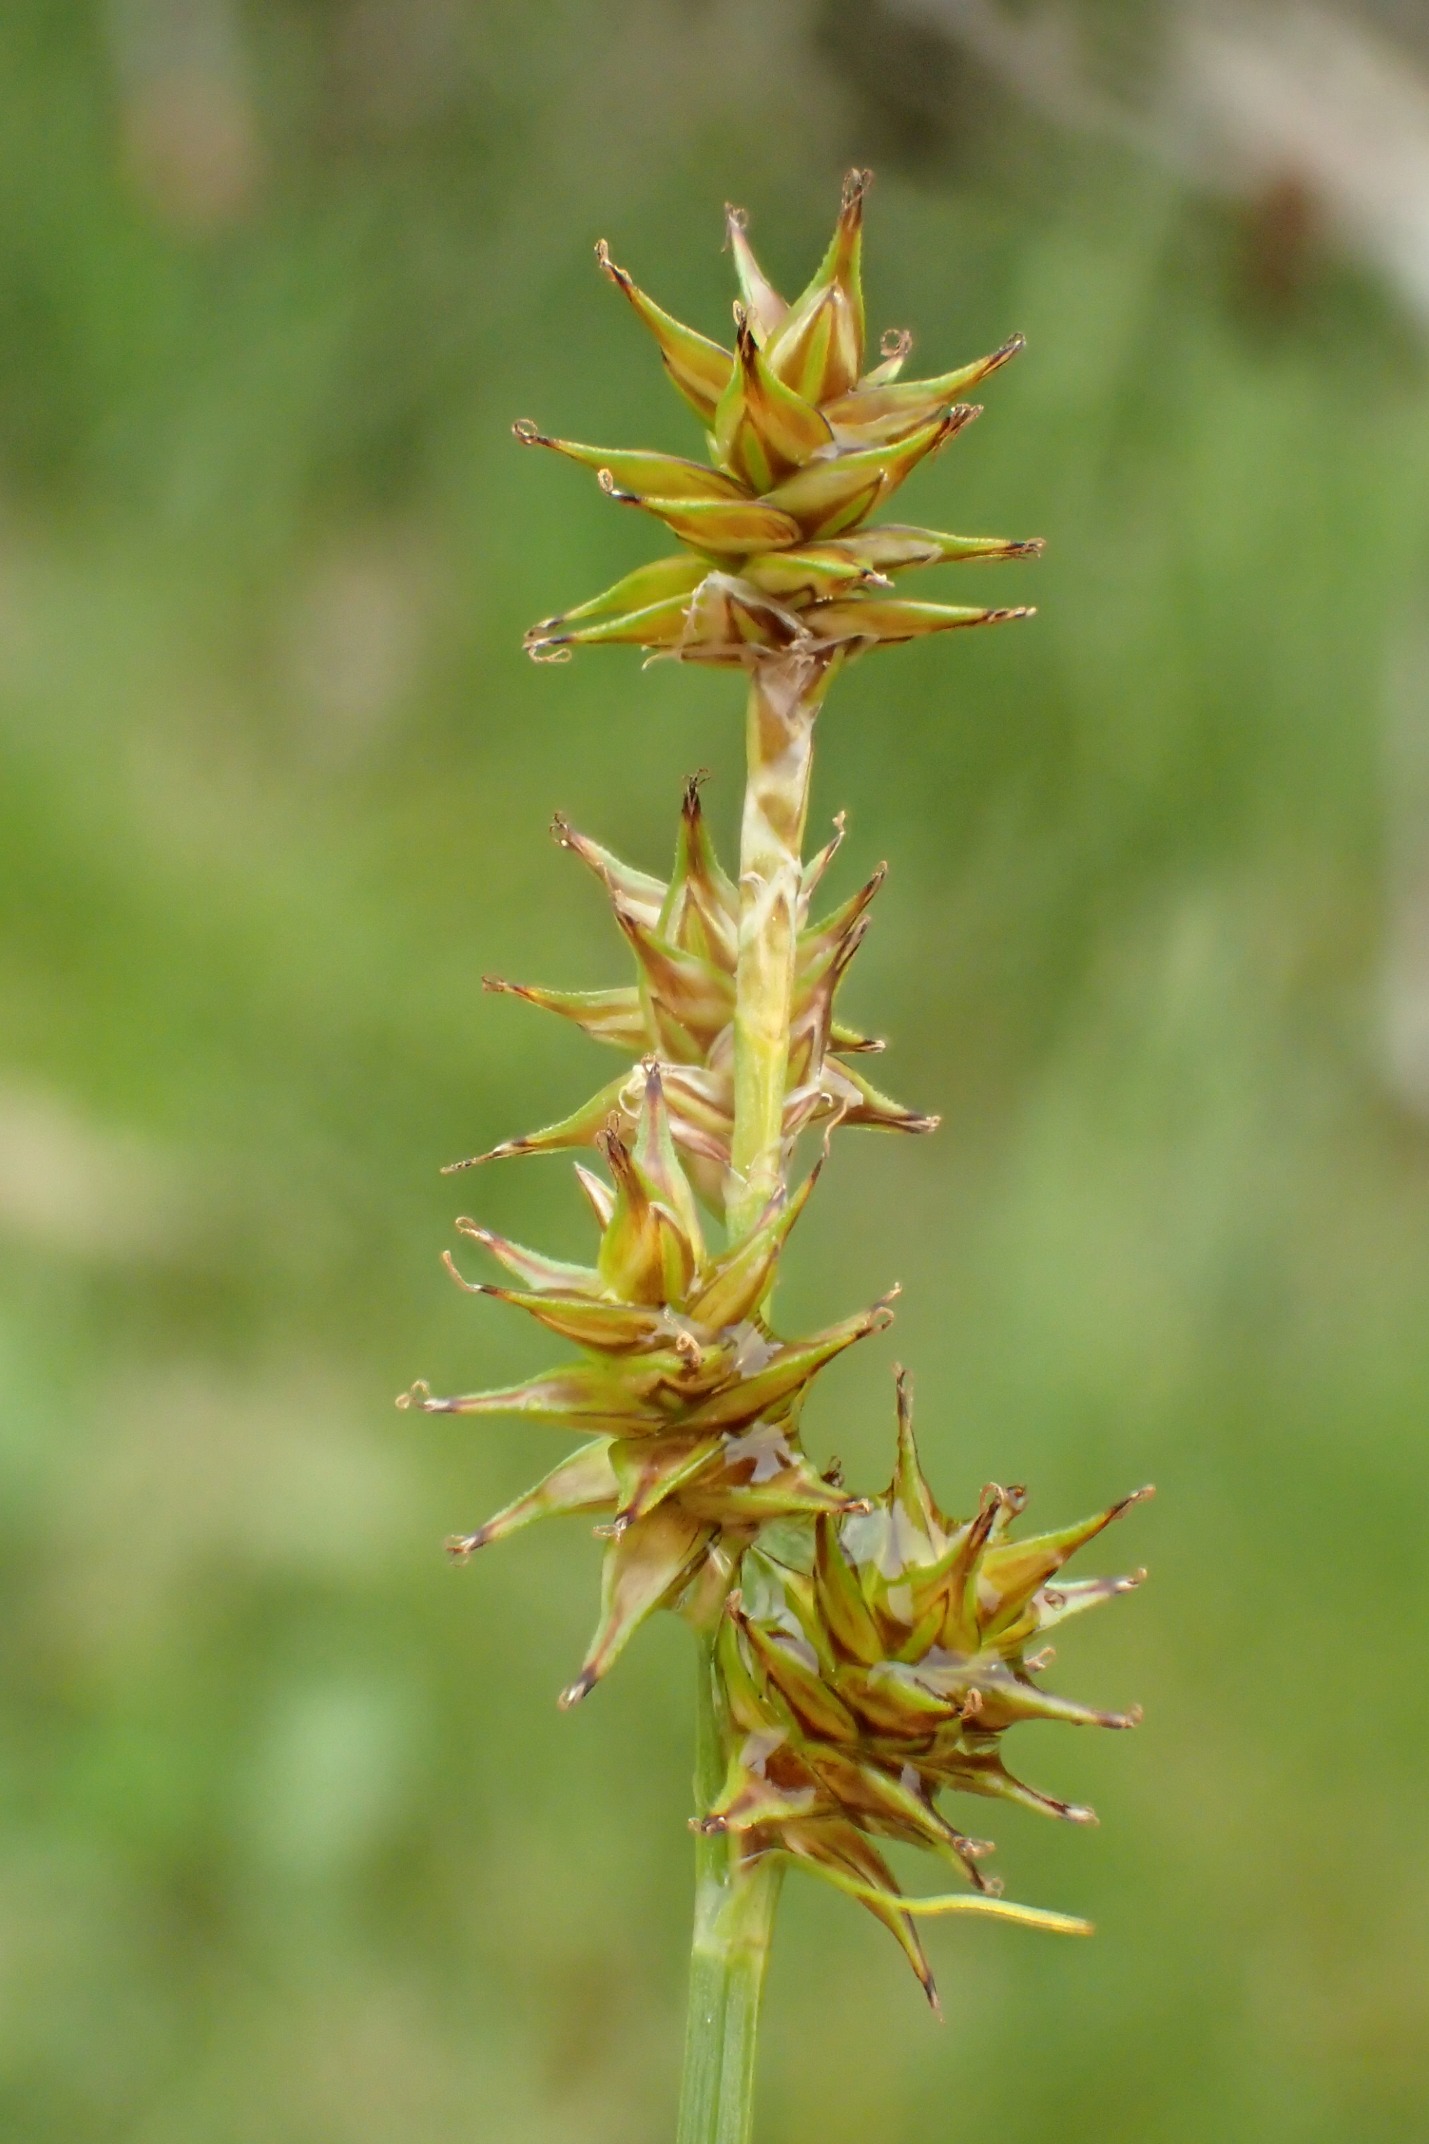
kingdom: Plantae
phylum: Tracheophyta
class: Liliopsida
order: Poales
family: Cyperaceae
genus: Carex
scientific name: Carex echinata
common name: Stjerne-star
